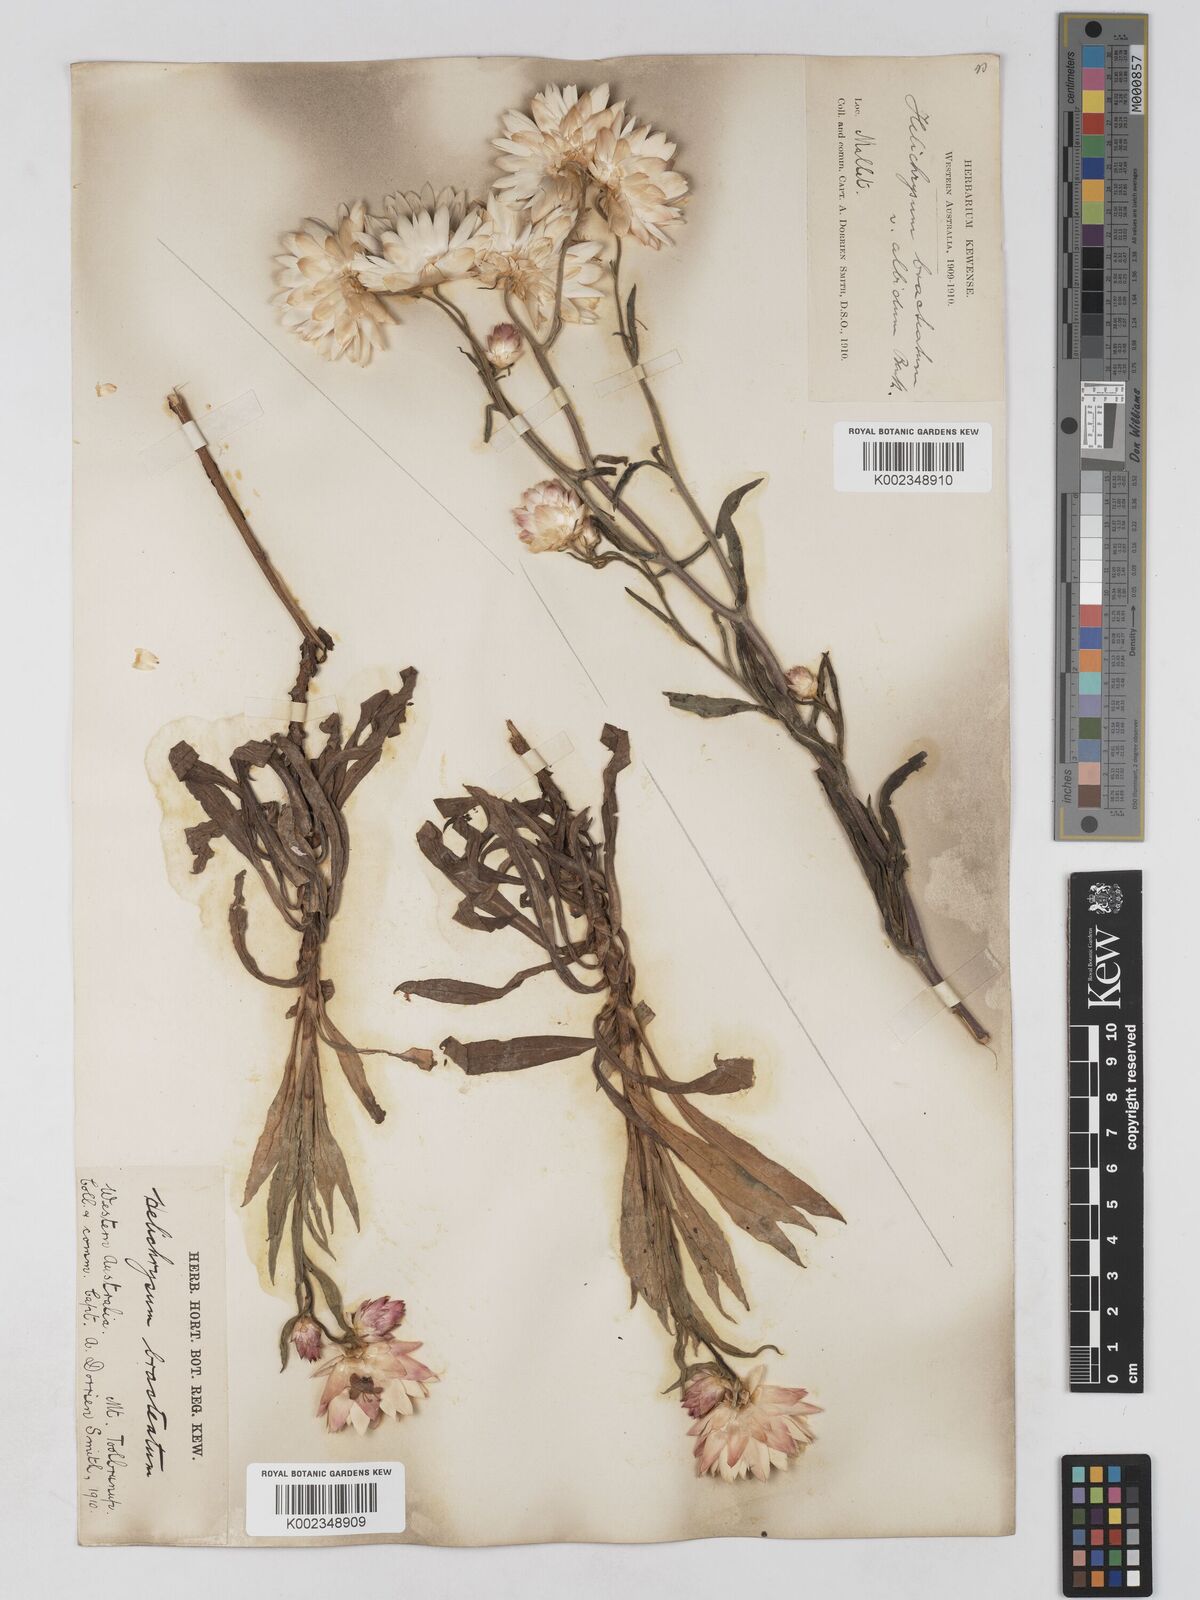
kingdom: Plantae
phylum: Tracheophyta
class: Magnoliopsida
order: Asterales
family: Asteraceae
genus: Xerochrysum
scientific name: Xerochrysum bracteatum
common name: Bracted strawflower
